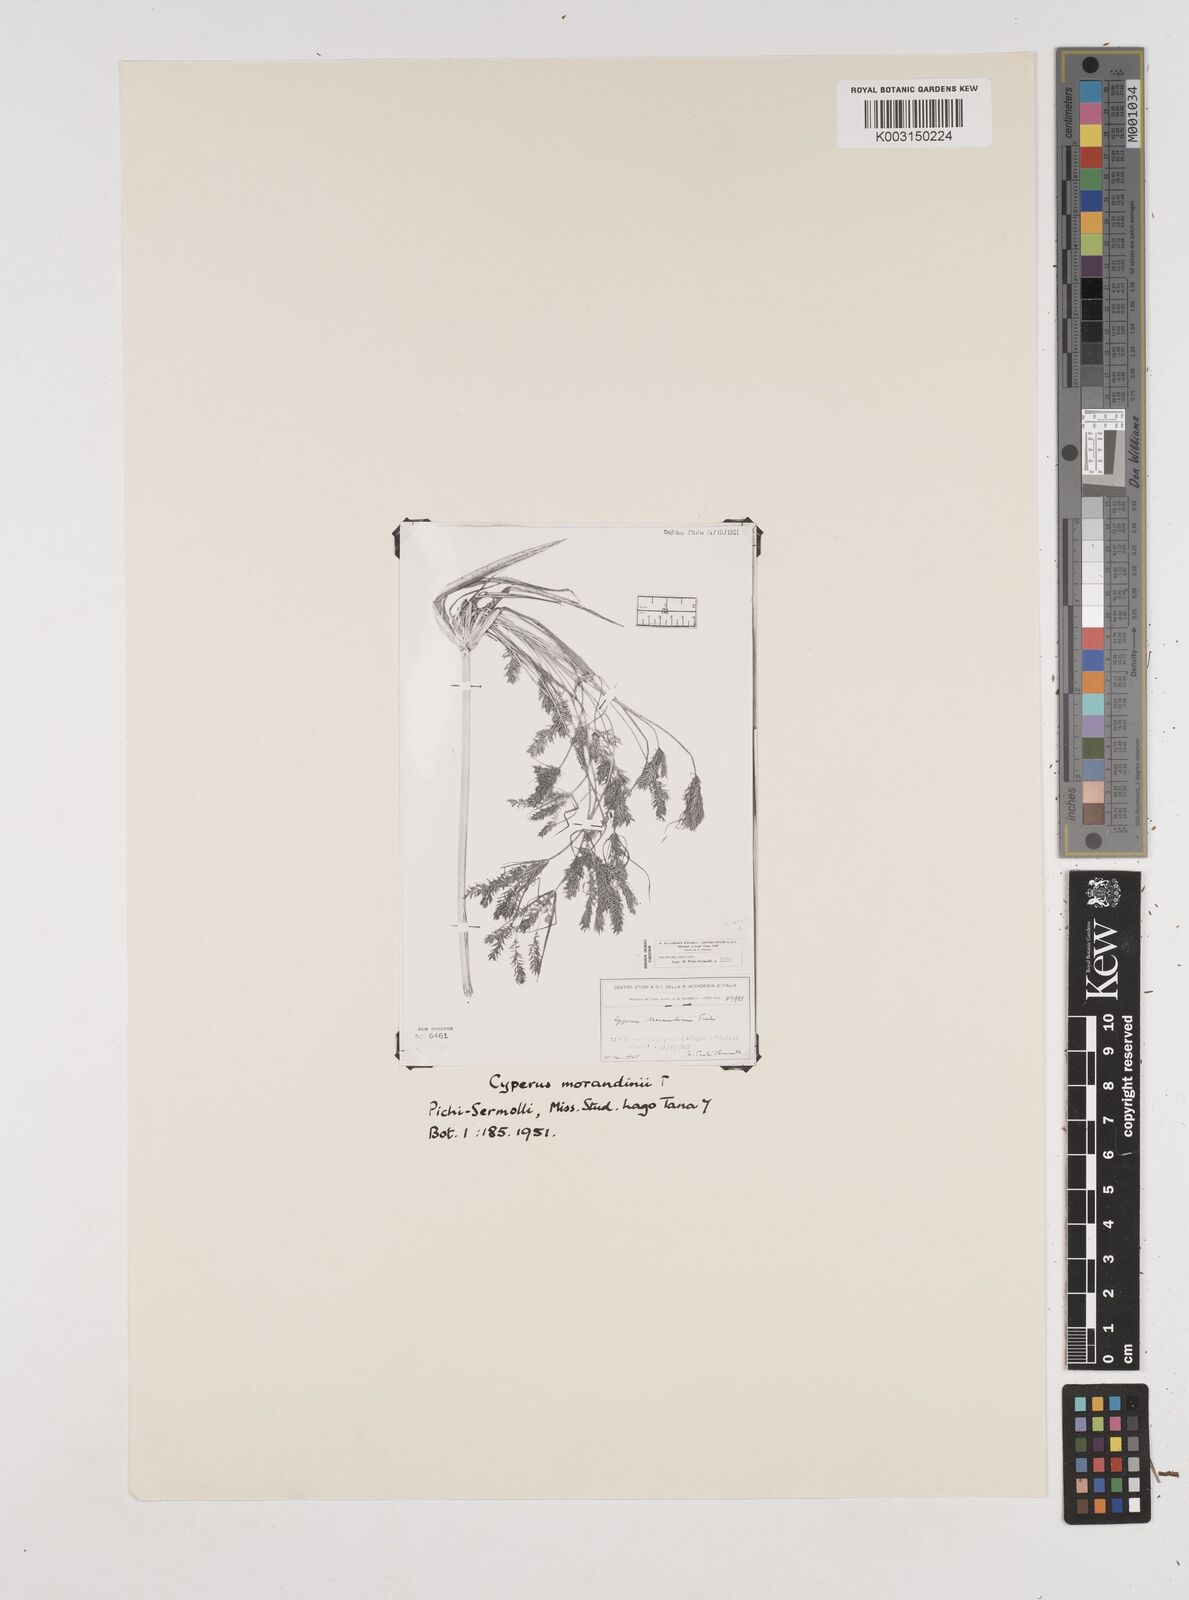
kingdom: Plantae
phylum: Tracheophyta
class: Liliopsida
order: Poales
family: Cyperaceae
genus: Cyperus
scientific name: Cyperus penzoanus
